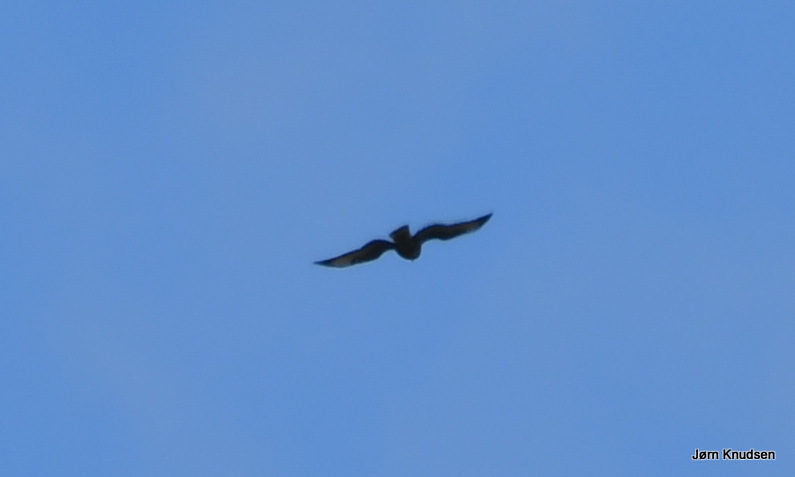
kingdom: Animalia
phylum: Chordata
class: Aves
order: Accipitriformes
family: Accipitridae
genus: Buteo
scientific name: Buteo buteo
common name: Musvåge
